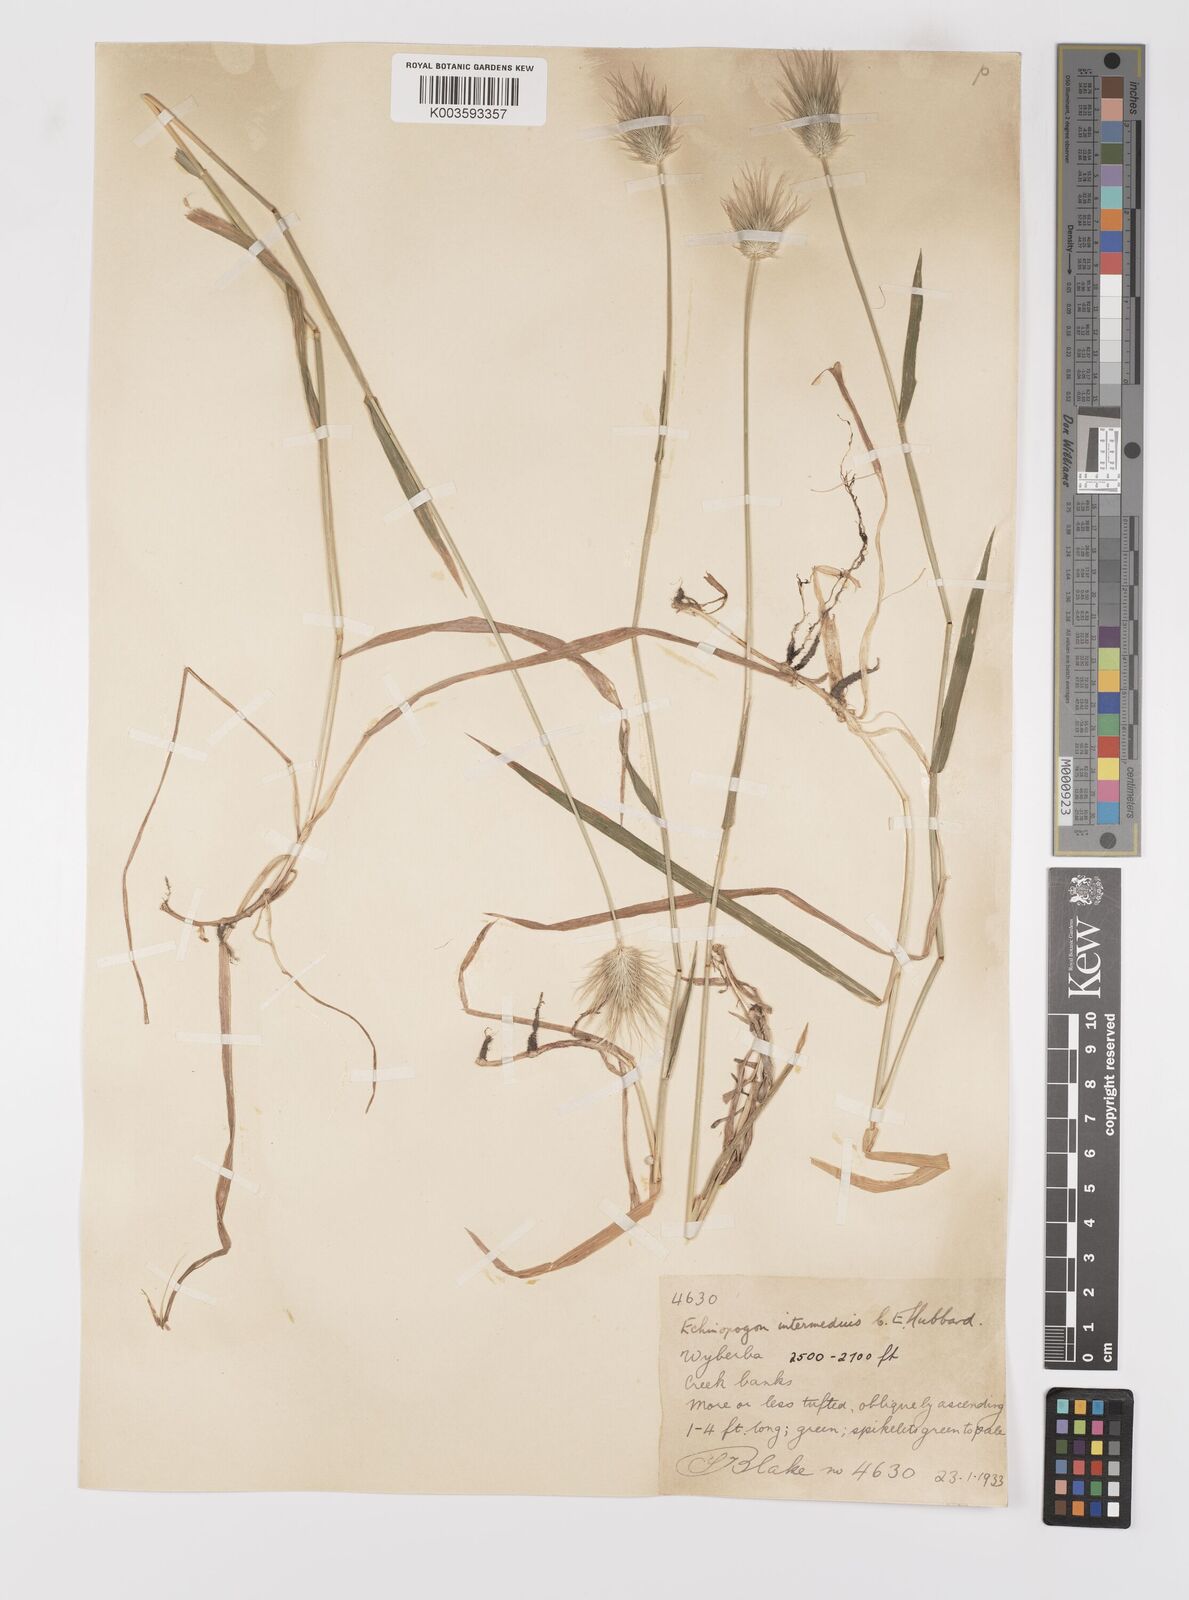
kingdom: Plantae
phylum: Tracheophyta
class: Liliopsida
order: Poales
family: Poaceae
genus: Echinopogon
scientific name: Echinopogon intermedius
